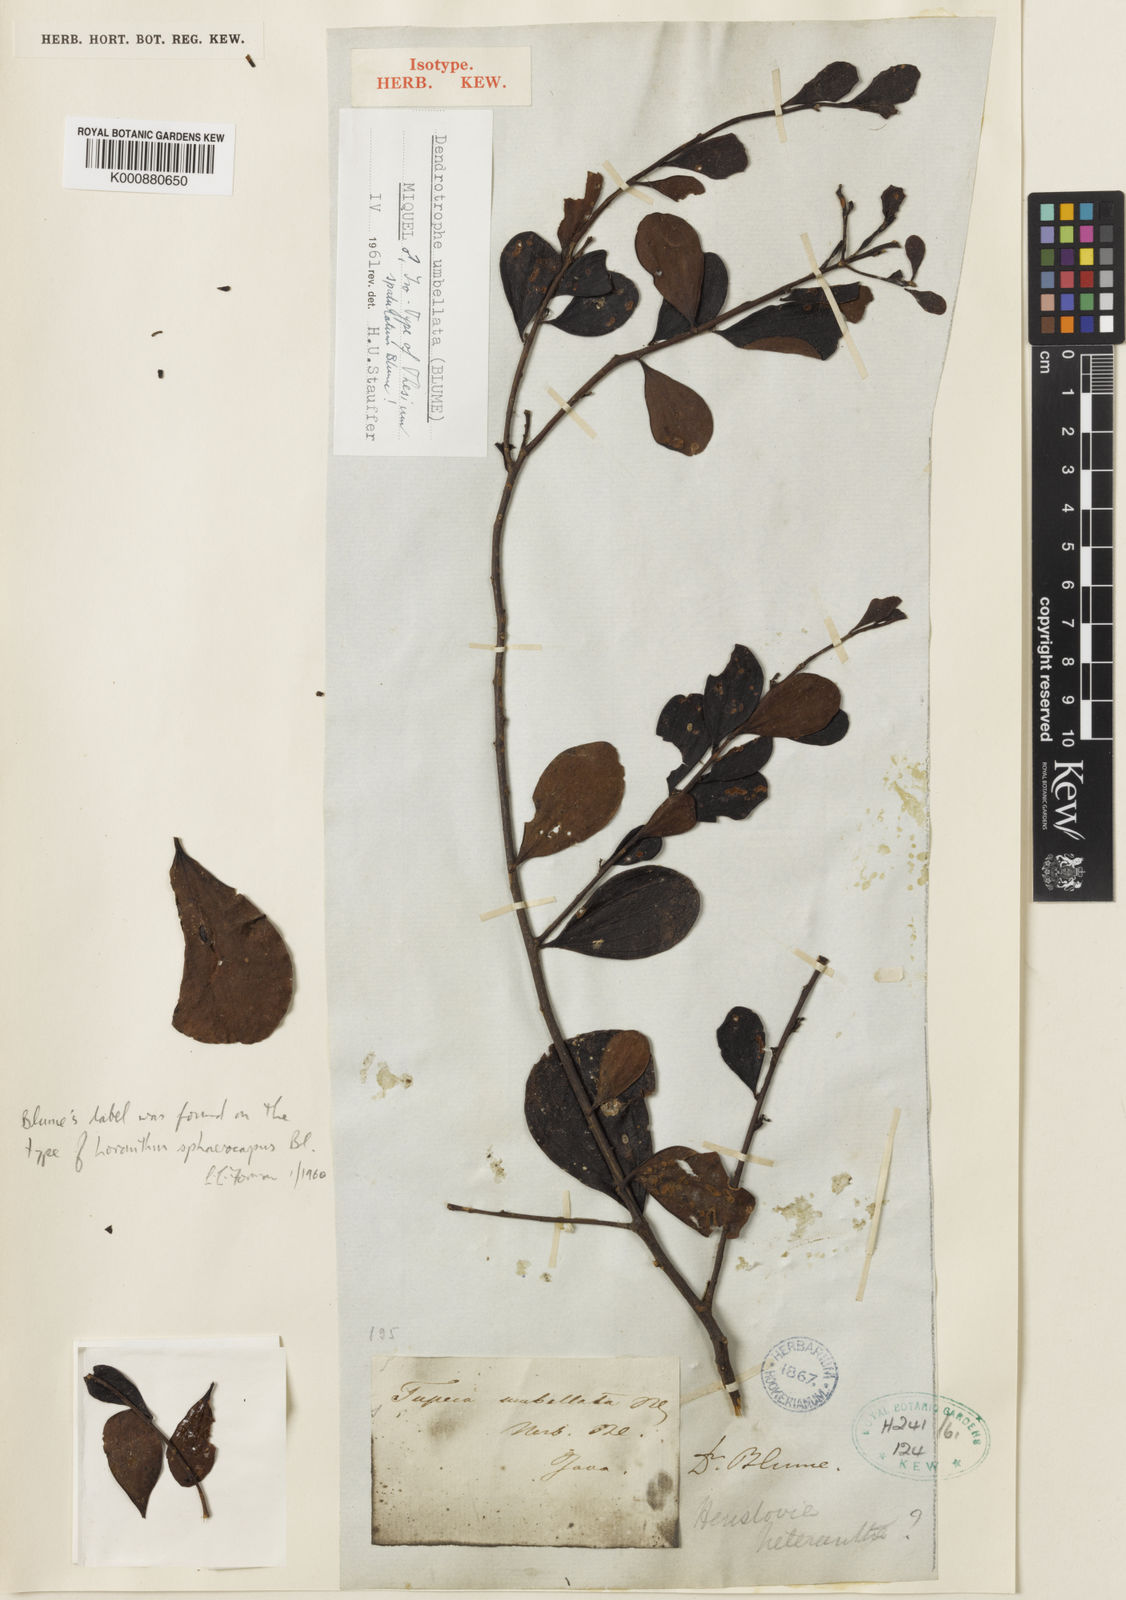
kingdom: Plantae
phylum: Tracheophyta
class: Magnoliopsida
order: Santalales
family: Amphorogynaceae
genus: Dendrotrophe
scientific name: Dendrotrophe umbellata
